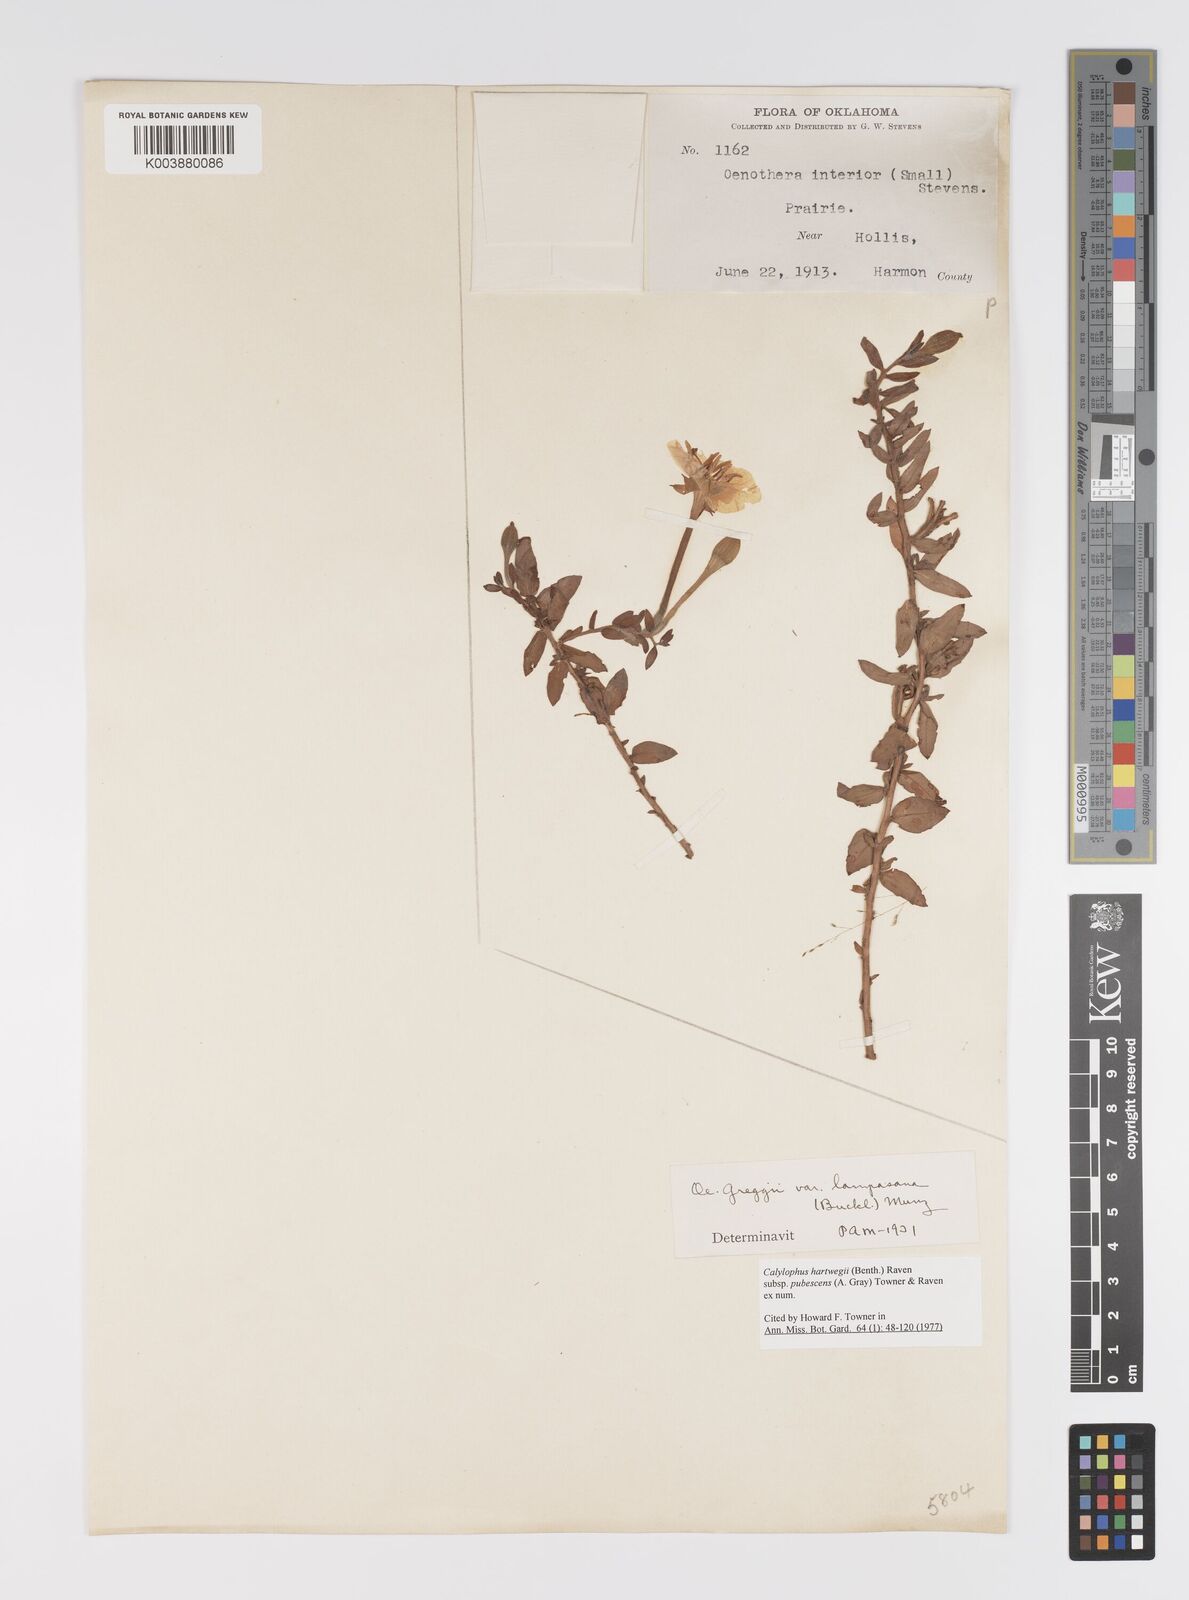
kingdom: Plantae
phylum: Tracheophyta
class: Magnoliopsida
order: Myrtales
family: Onagraceae
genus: Oenothera
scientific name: Oenothera hartwegii
